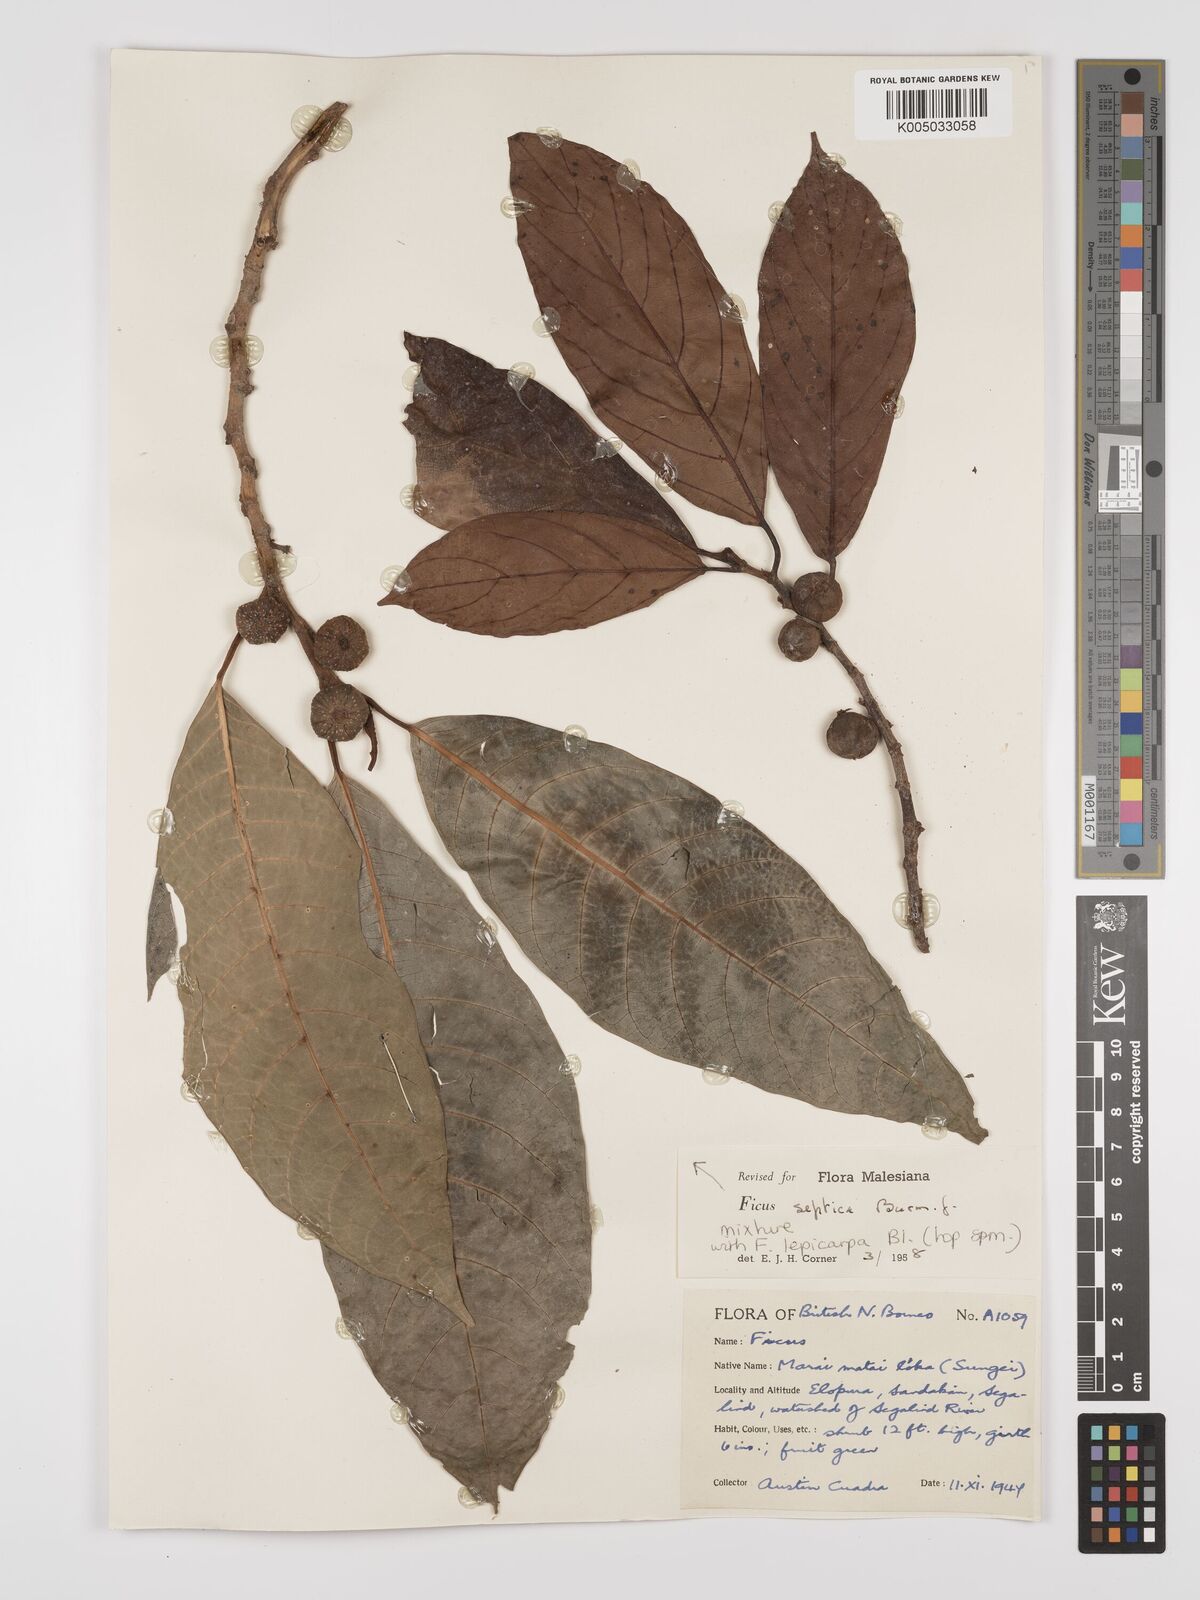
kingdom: Plantae
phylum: Tracheophyta
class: Magnoliopsida
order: Rosales
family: Moraceae
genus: Ficus
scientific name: Ficus septica
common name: Septic fig
